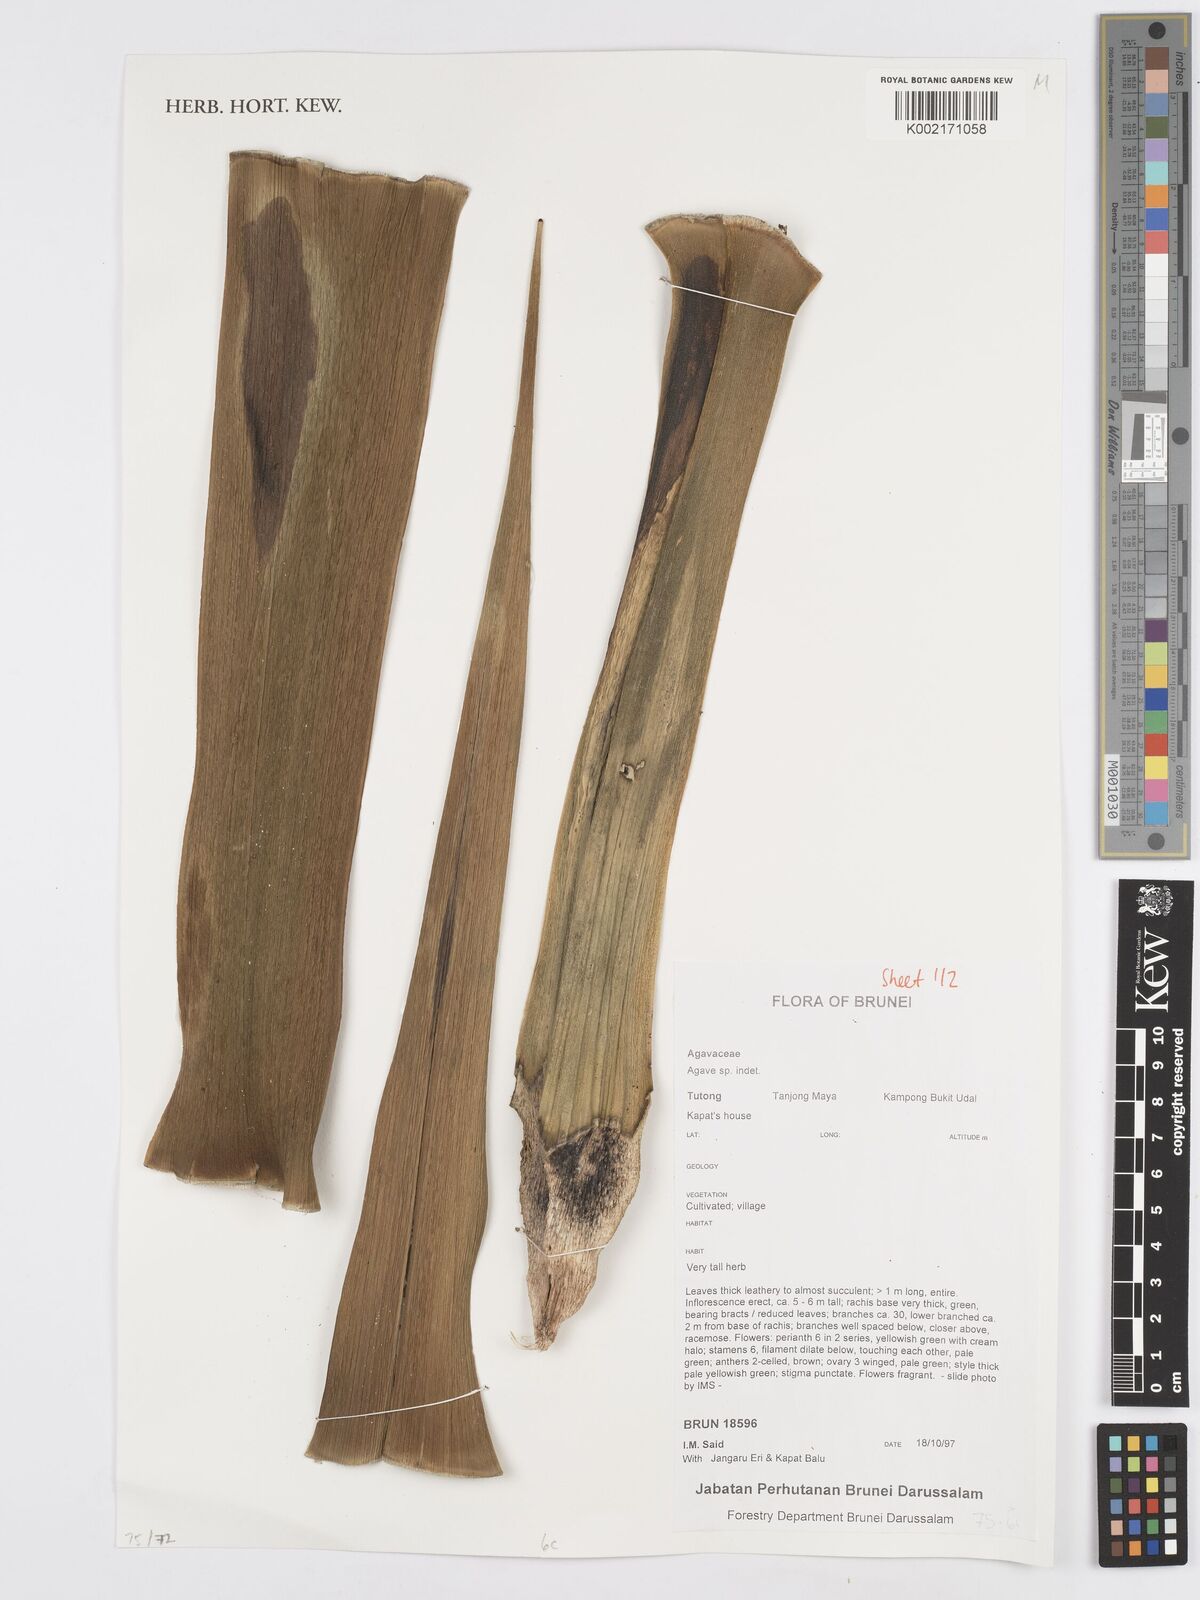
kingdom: Plantae
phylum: Tracheophyta
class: Liliopsida
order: Asparagales
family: Asparagaceae
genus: Agave
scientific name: Agave
